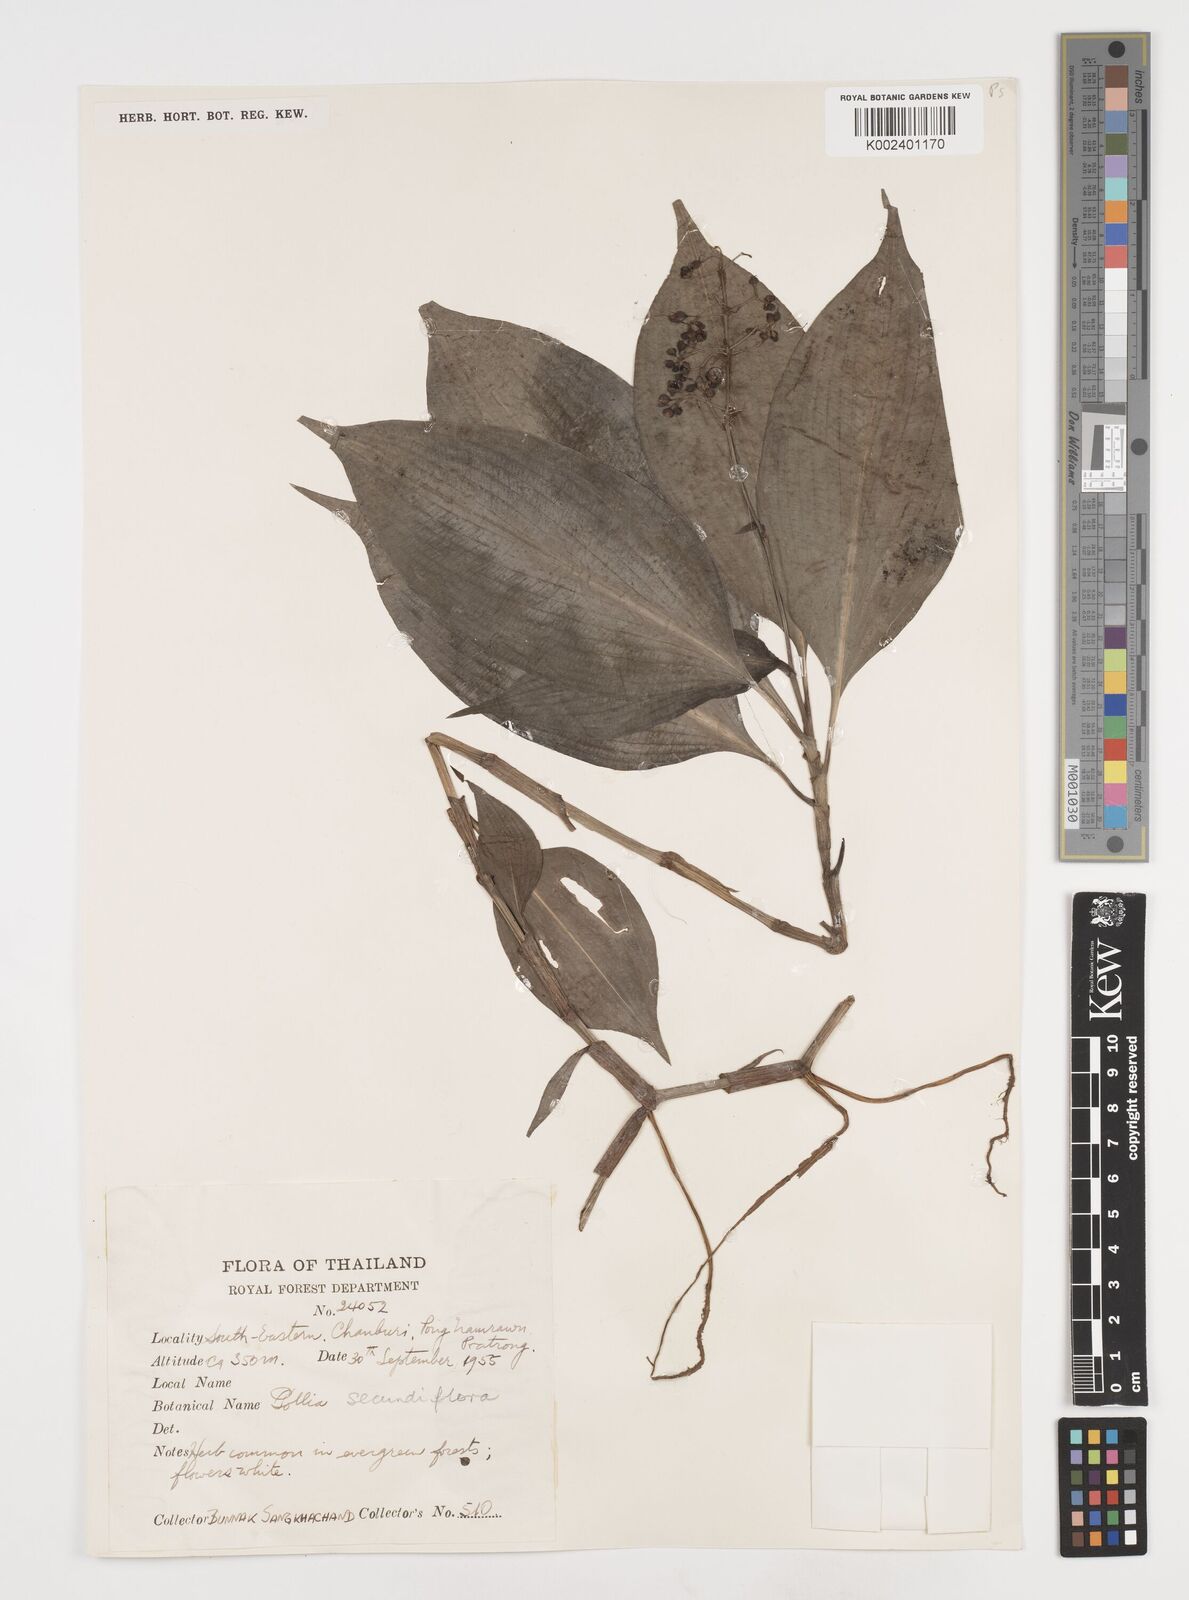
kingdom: Plantae
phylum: Tracheophyta
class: Liliopsida
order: Commelinales
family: Commelinaceae
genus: Pollia
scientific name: Pollia secundiflora
